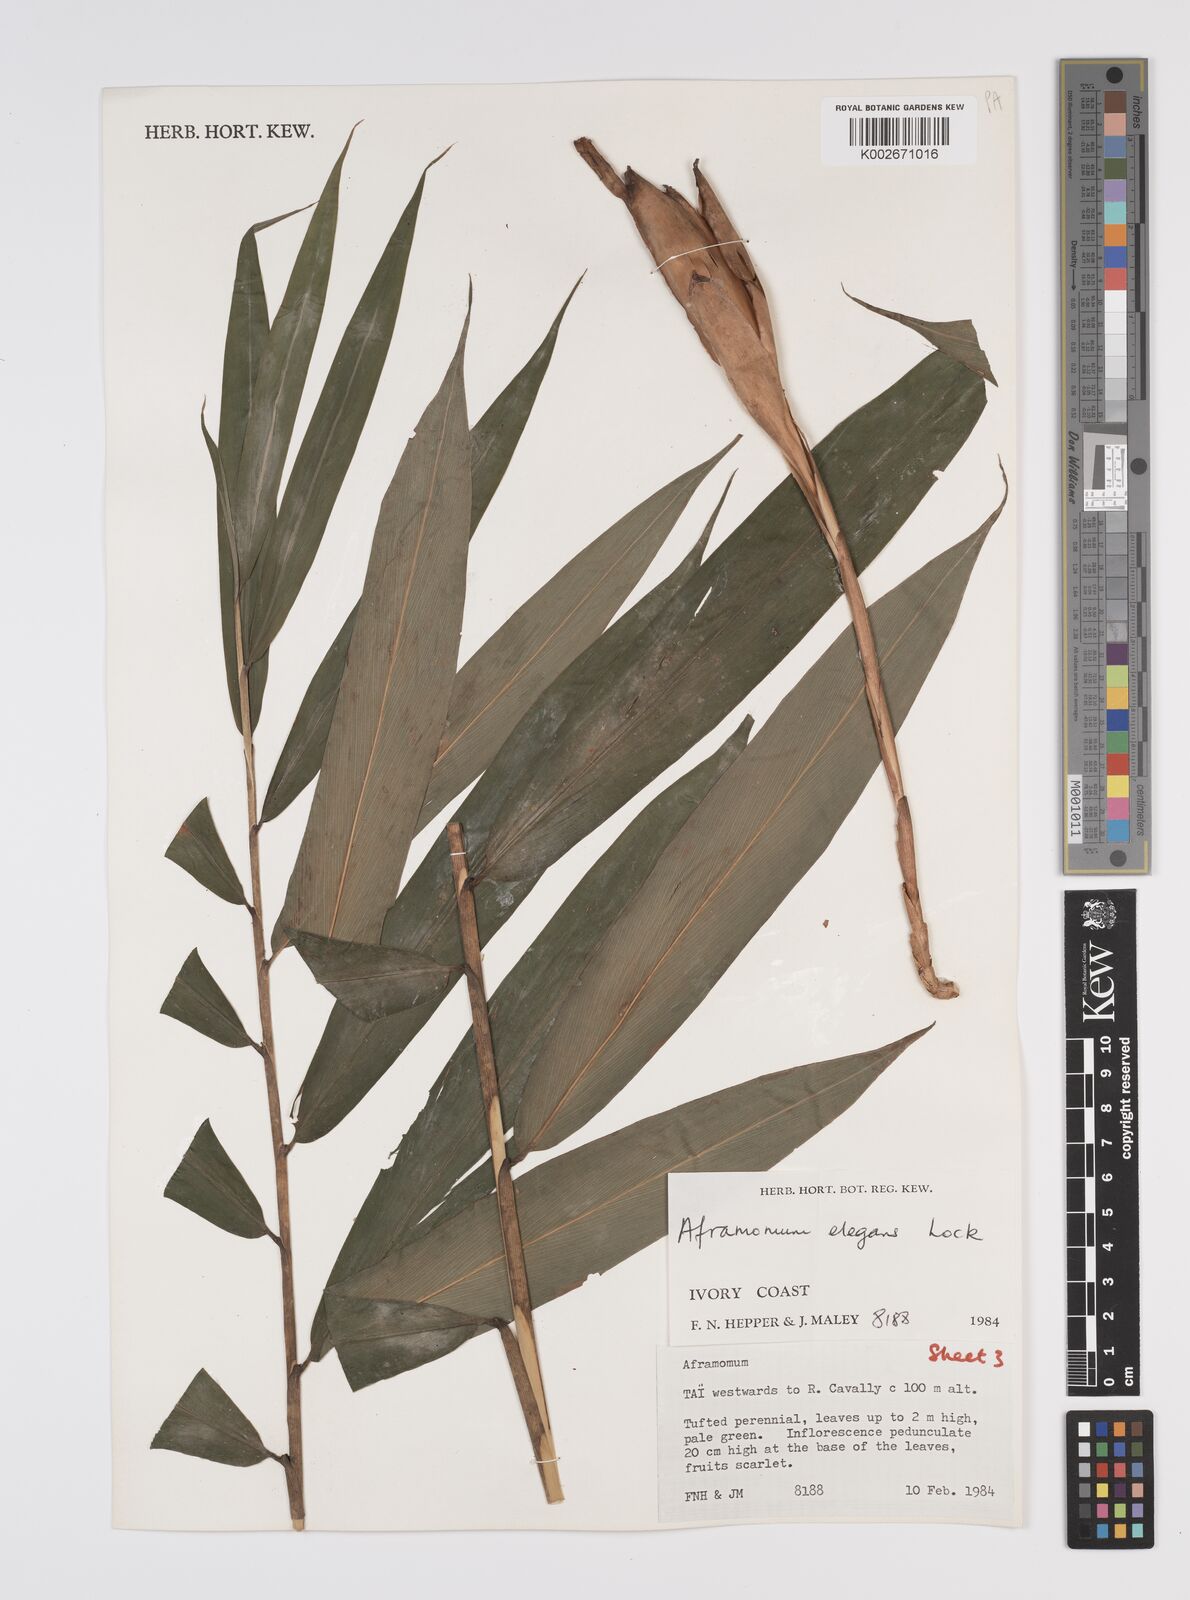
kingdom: Plantae
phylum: Tracheophyta
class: Liliopsida
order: Zingiberales
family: Zingiberaceae
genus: Aframomum
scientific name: Aframomum elegans
